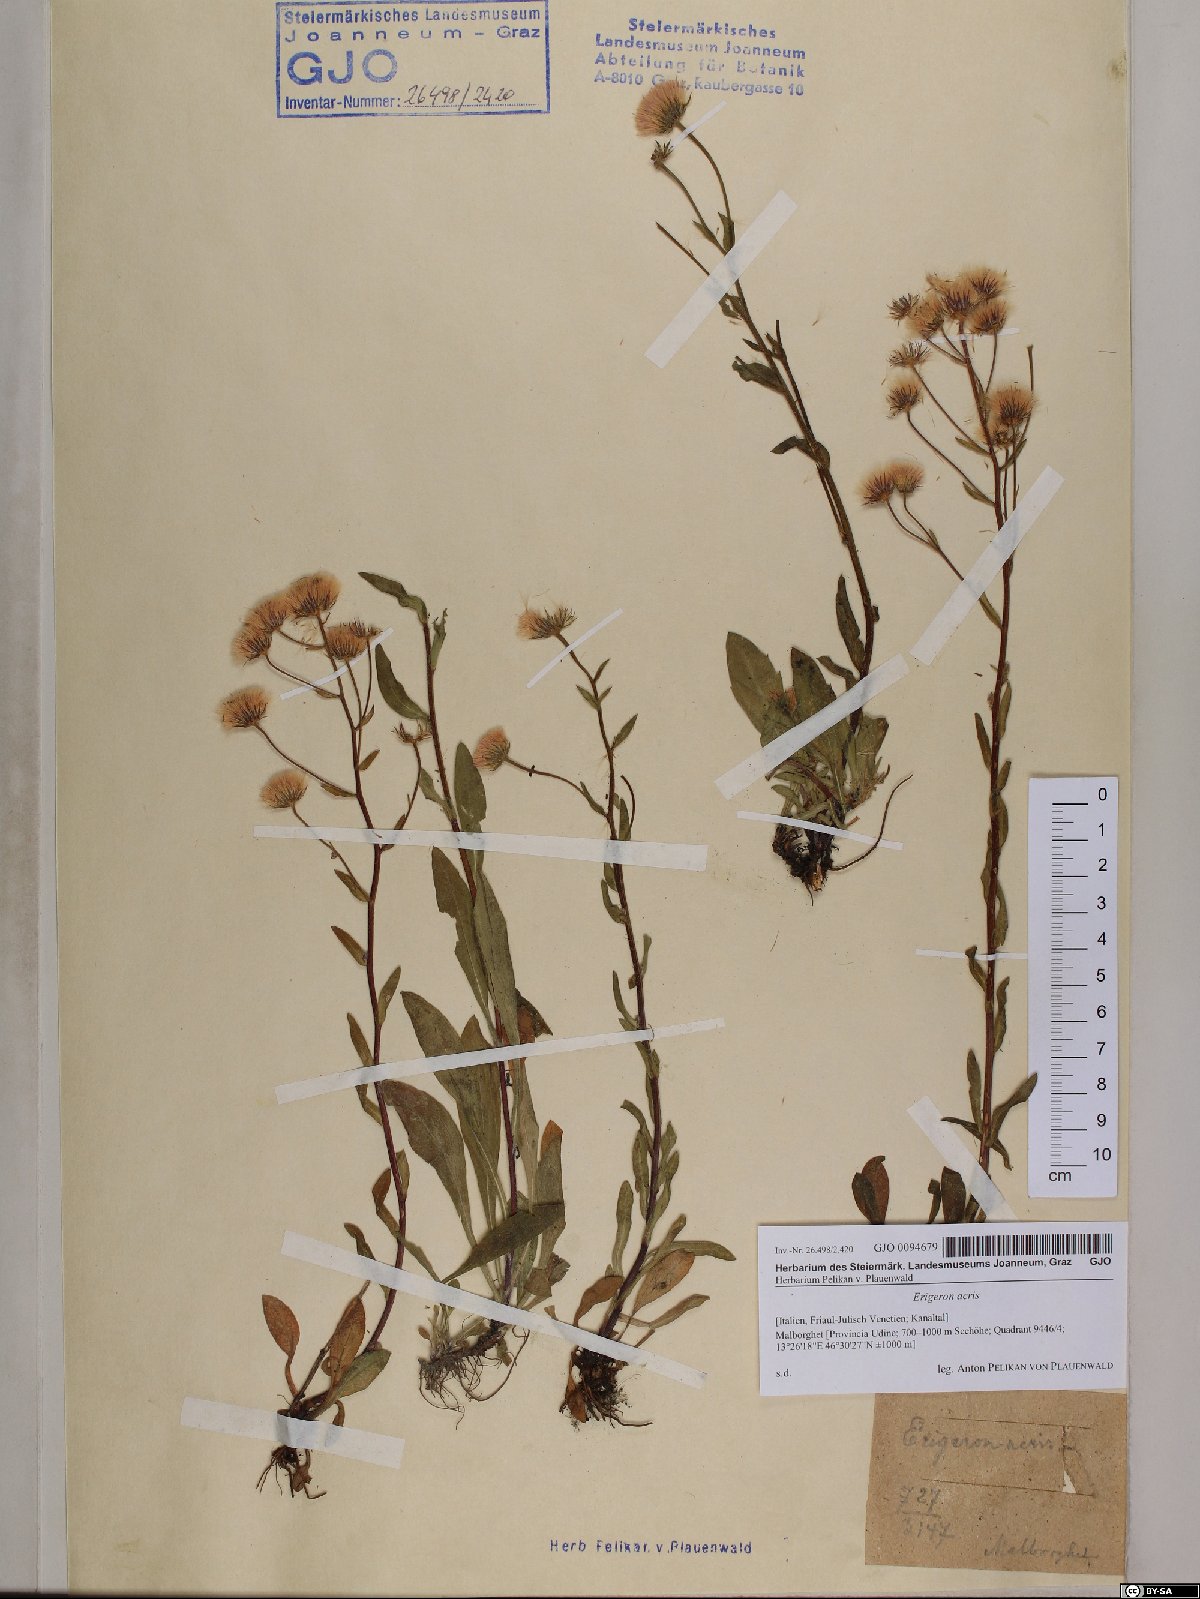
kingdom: Plantae
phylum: Tracheophyta
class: Magnoliopsida
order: Asterales
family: Asteraceae
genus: Erigeron
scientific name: Erigeron acris
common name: Blue fleabane
